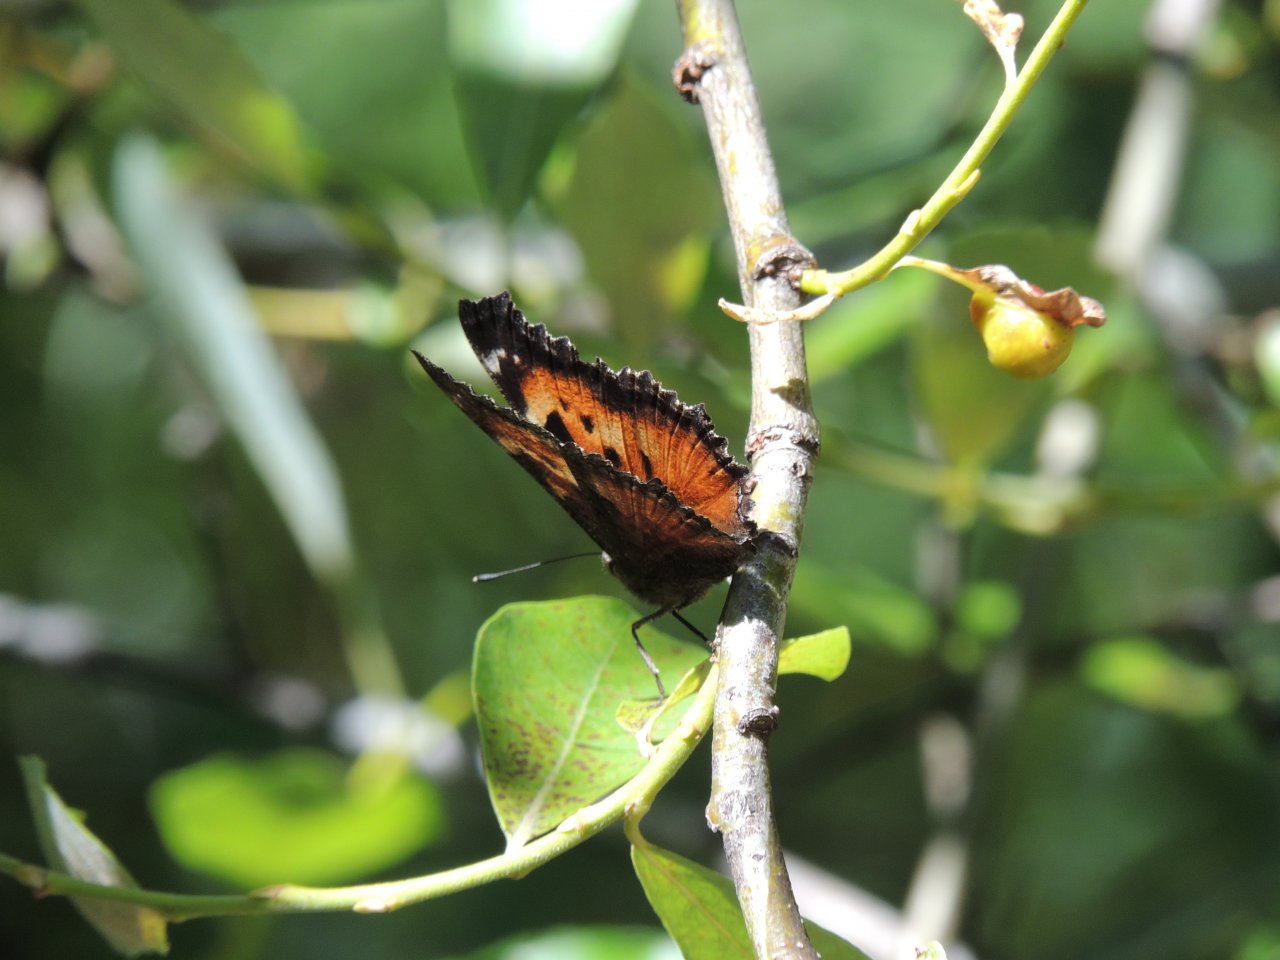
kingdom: Animalia
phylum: Arthropoda
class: Insecta
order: Lepidoptera
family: Nymphalidae
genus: Nymphalis
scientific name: Nymphalis californica
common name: California Tortoiseshell
